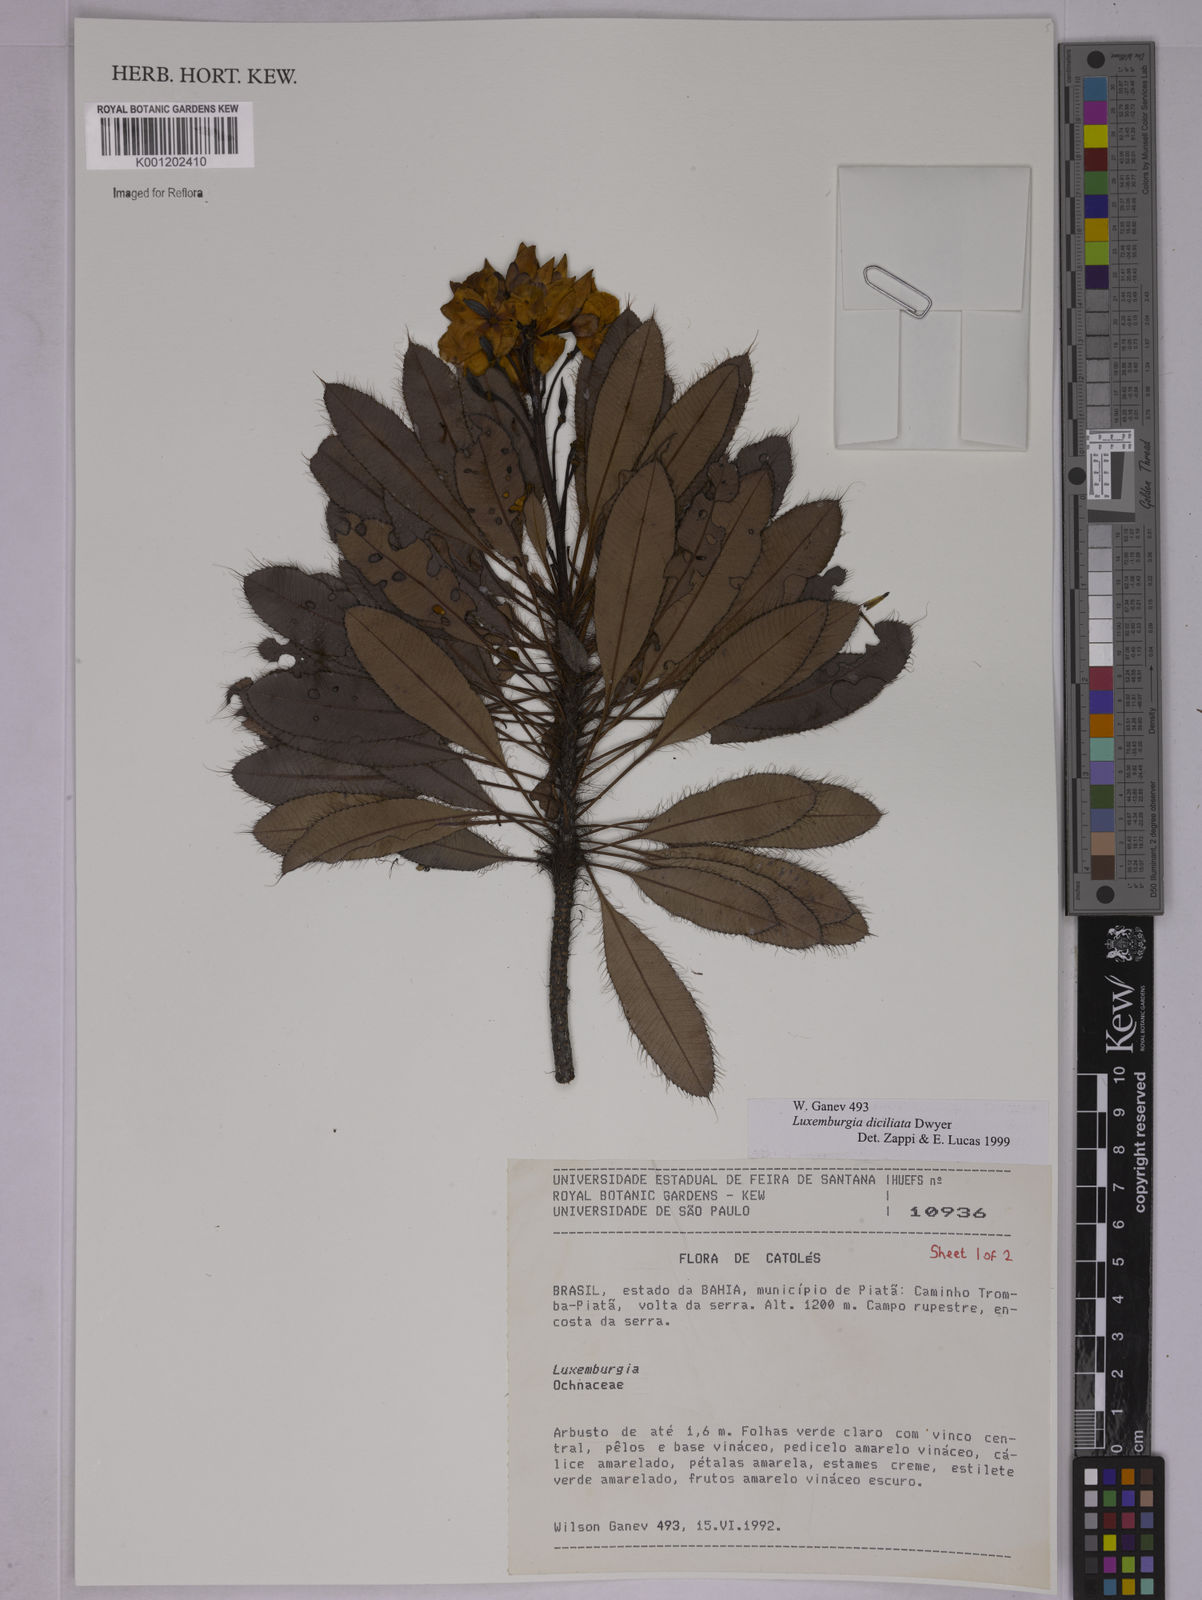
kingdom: Plantae
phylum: Tracheophyta
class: Magnoliopsida
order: Malpighiales
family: Ochnaceae
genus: Luxemburgia
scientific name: Luxemburgia diciliata
